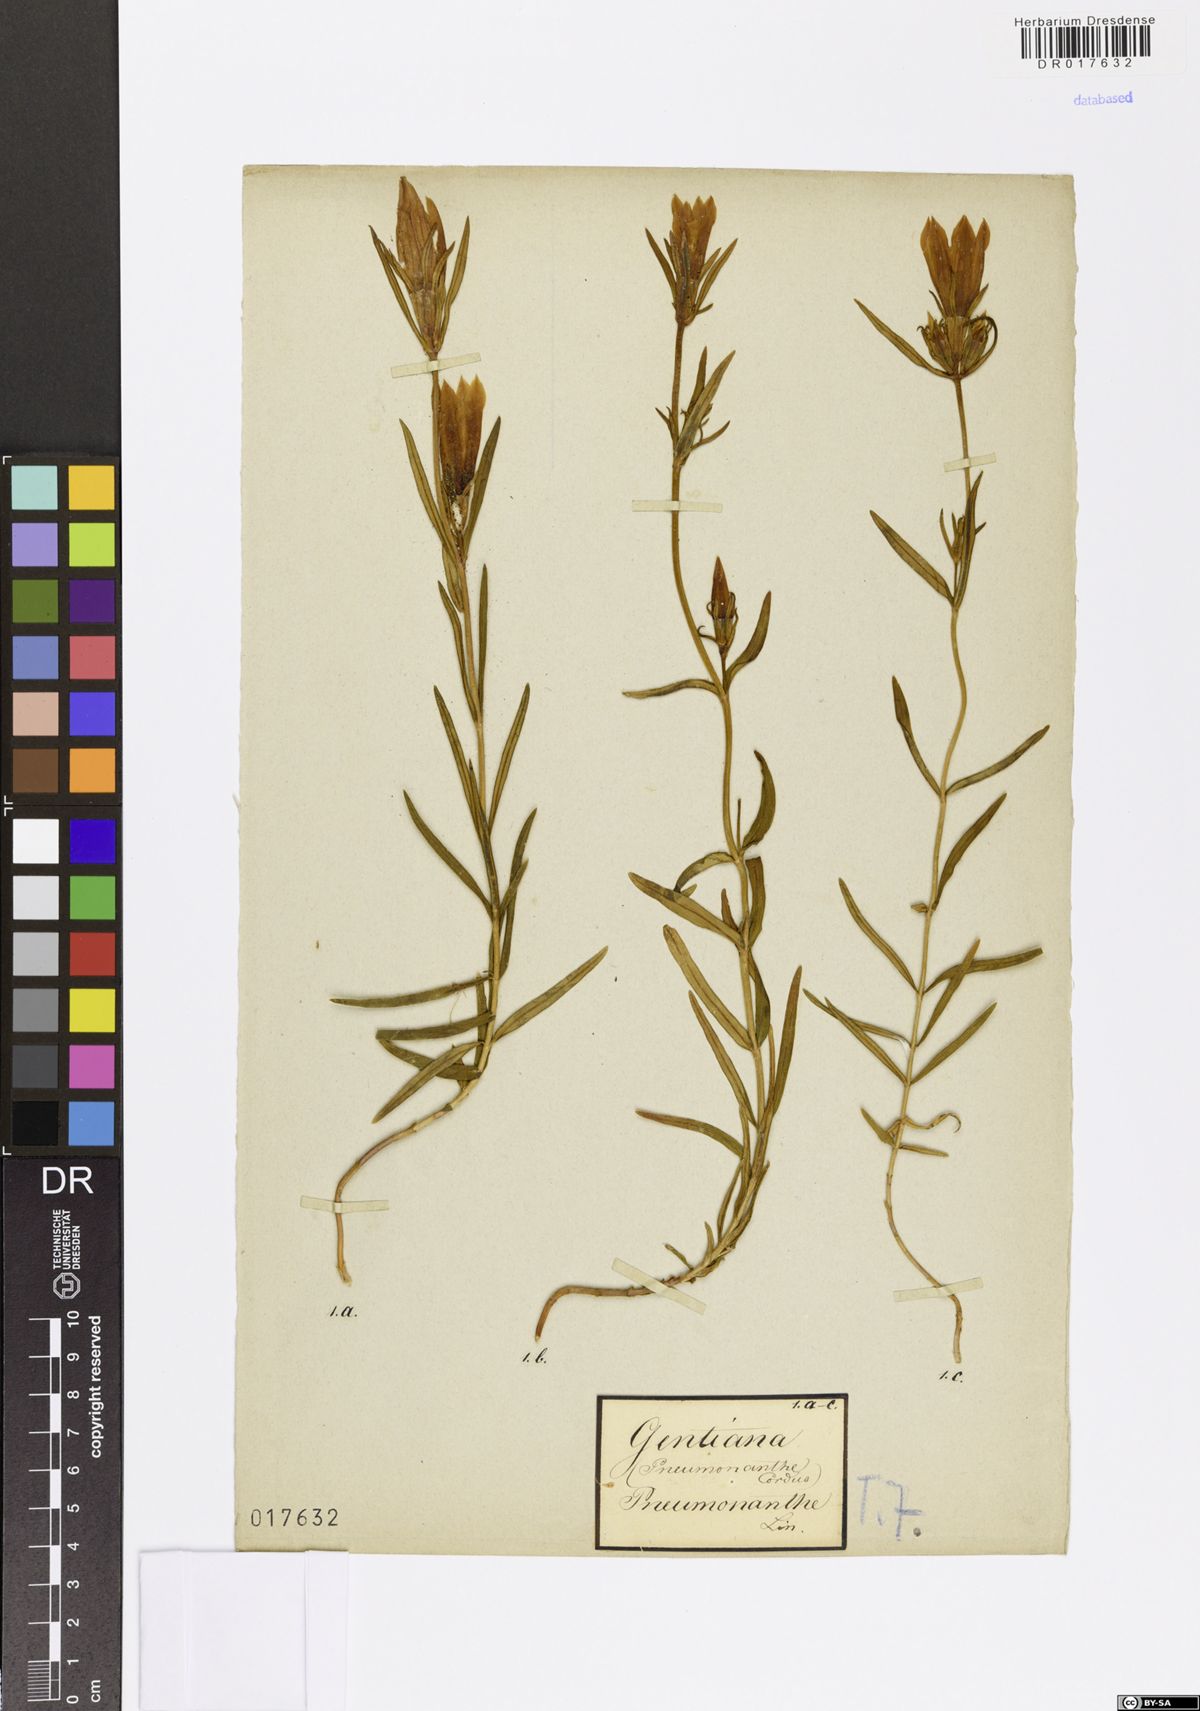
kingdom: Plantae
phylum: Tracheophyta
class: Magnoliopsida
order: Gentianales
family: Gentianaceae
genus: Gentiana
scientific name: Gentiana pneumonanthe
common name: Marsh gentian
